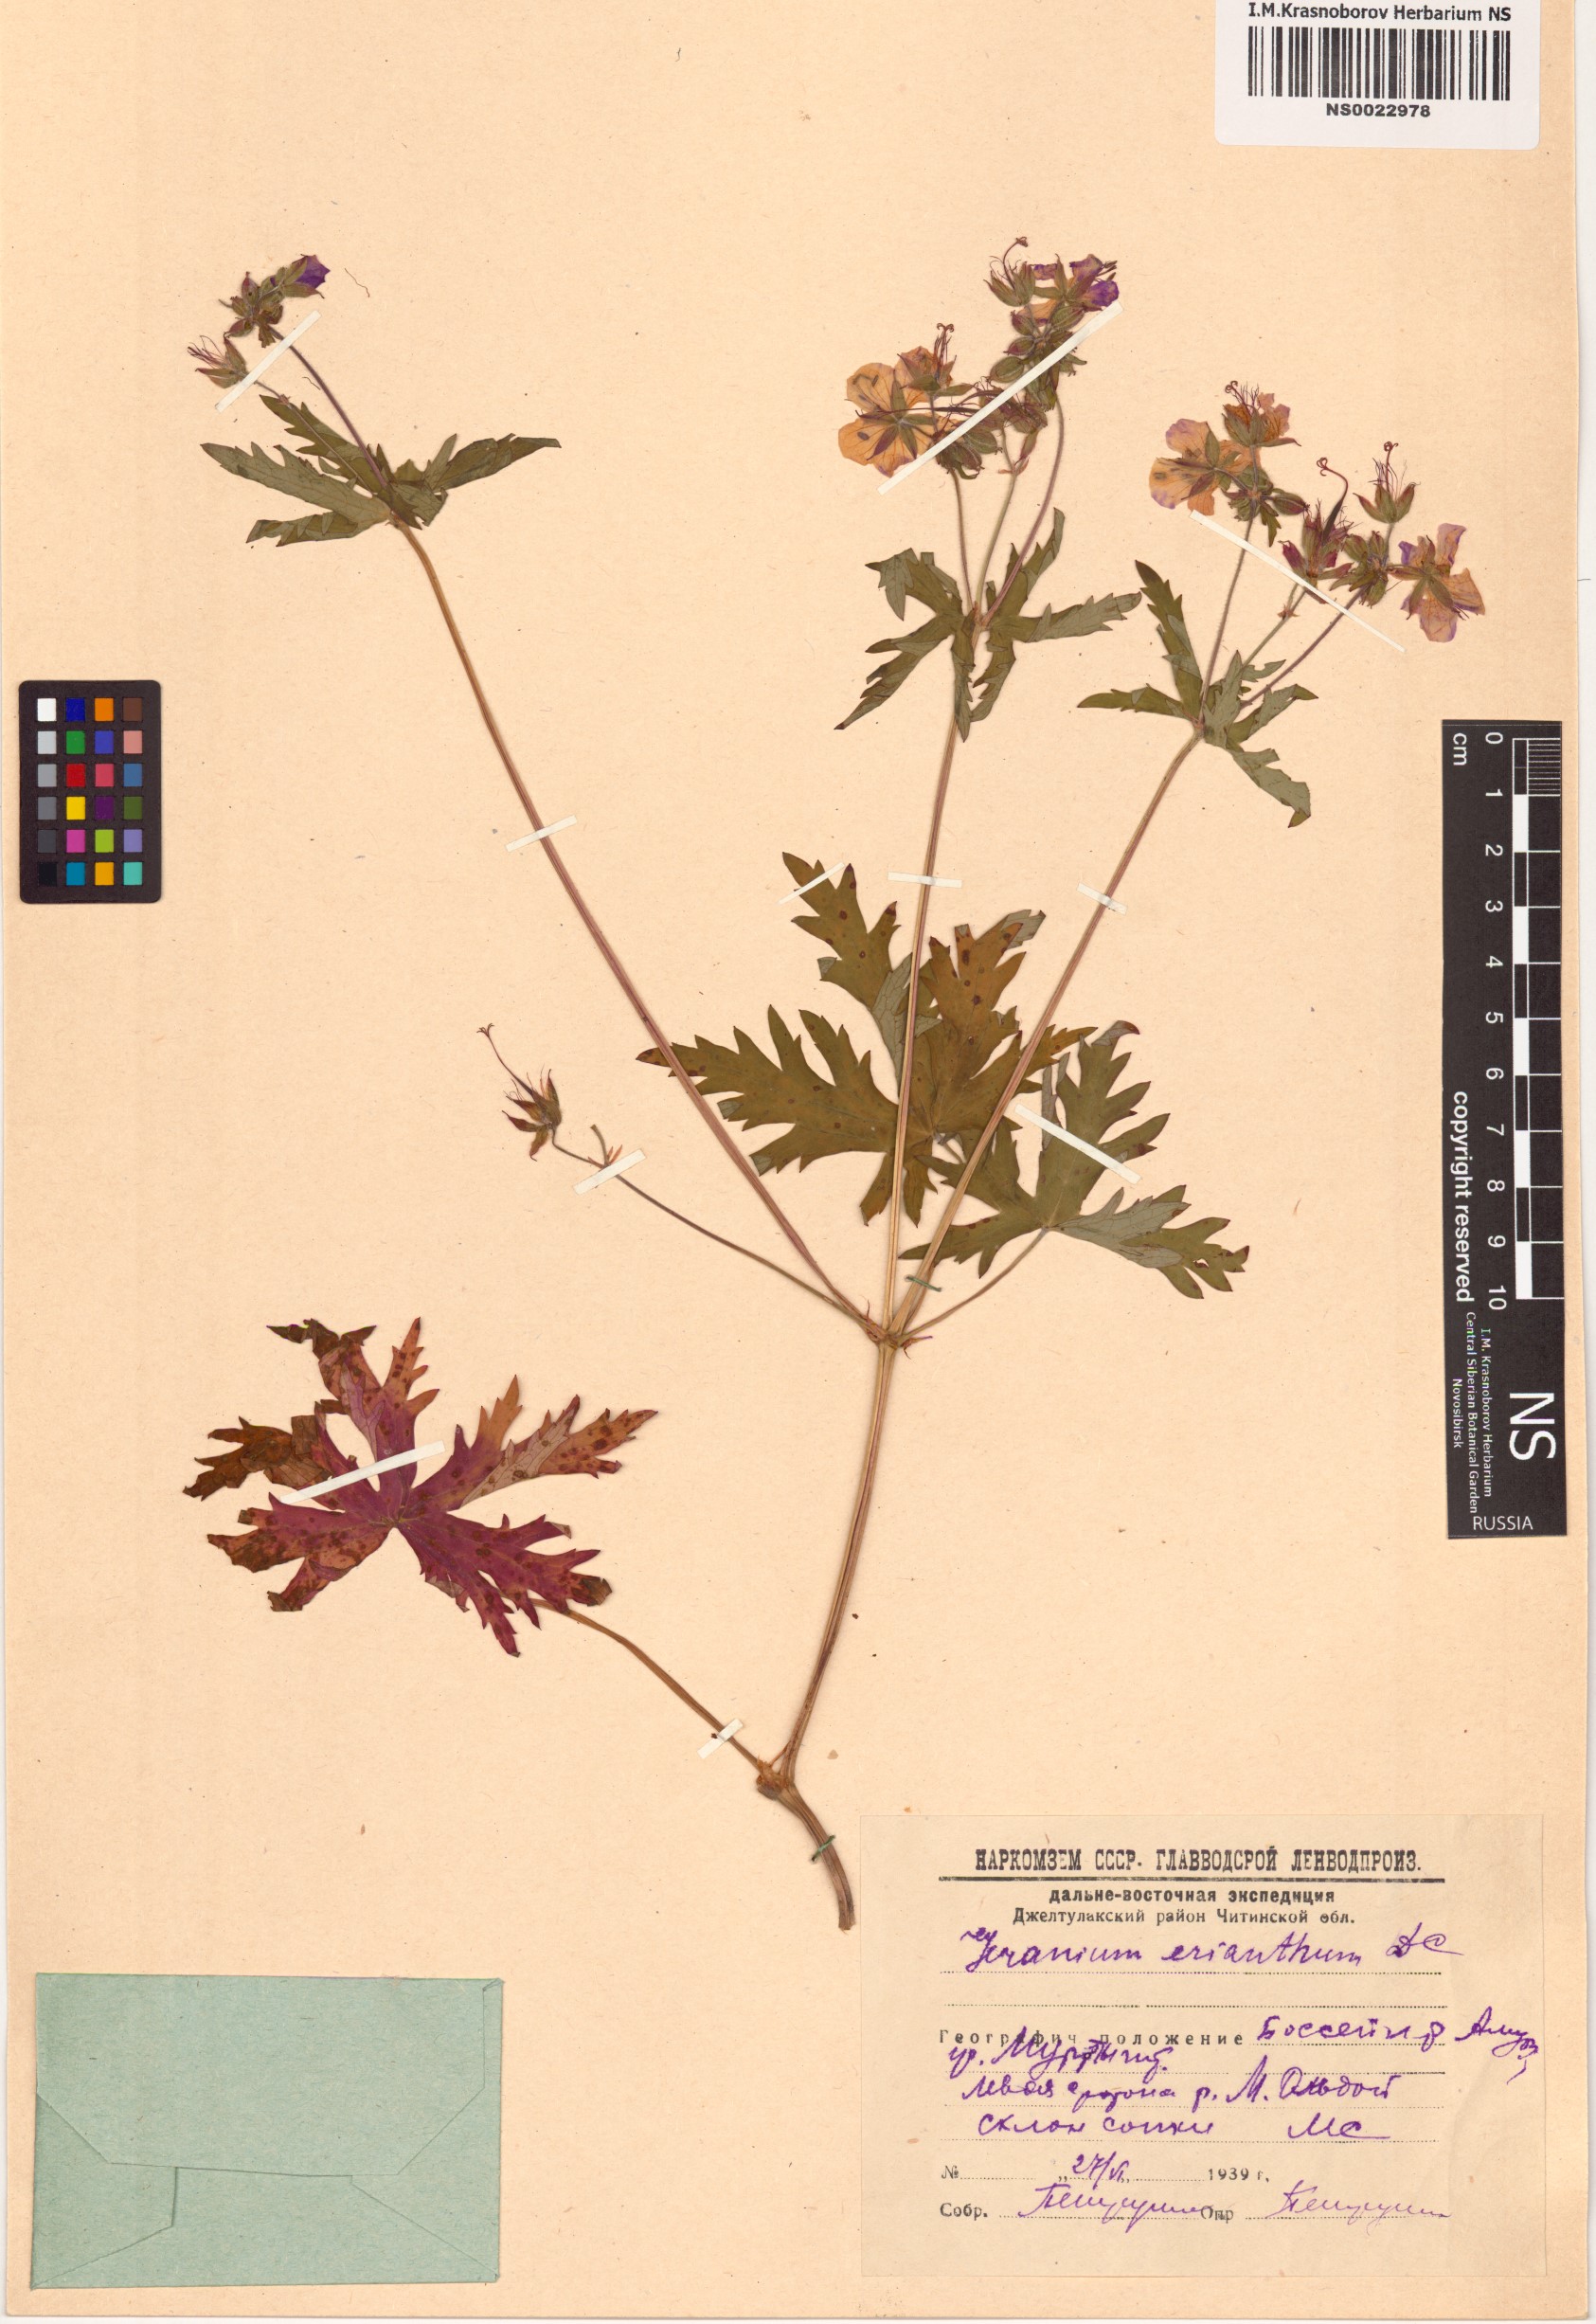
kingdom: Plantae
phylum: Tracheophyta
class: Magnoliopsida
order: Geraniales
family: Geraniaceae
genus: Geranium
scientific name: Geranium erianthum
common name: Northern crane's-bill
